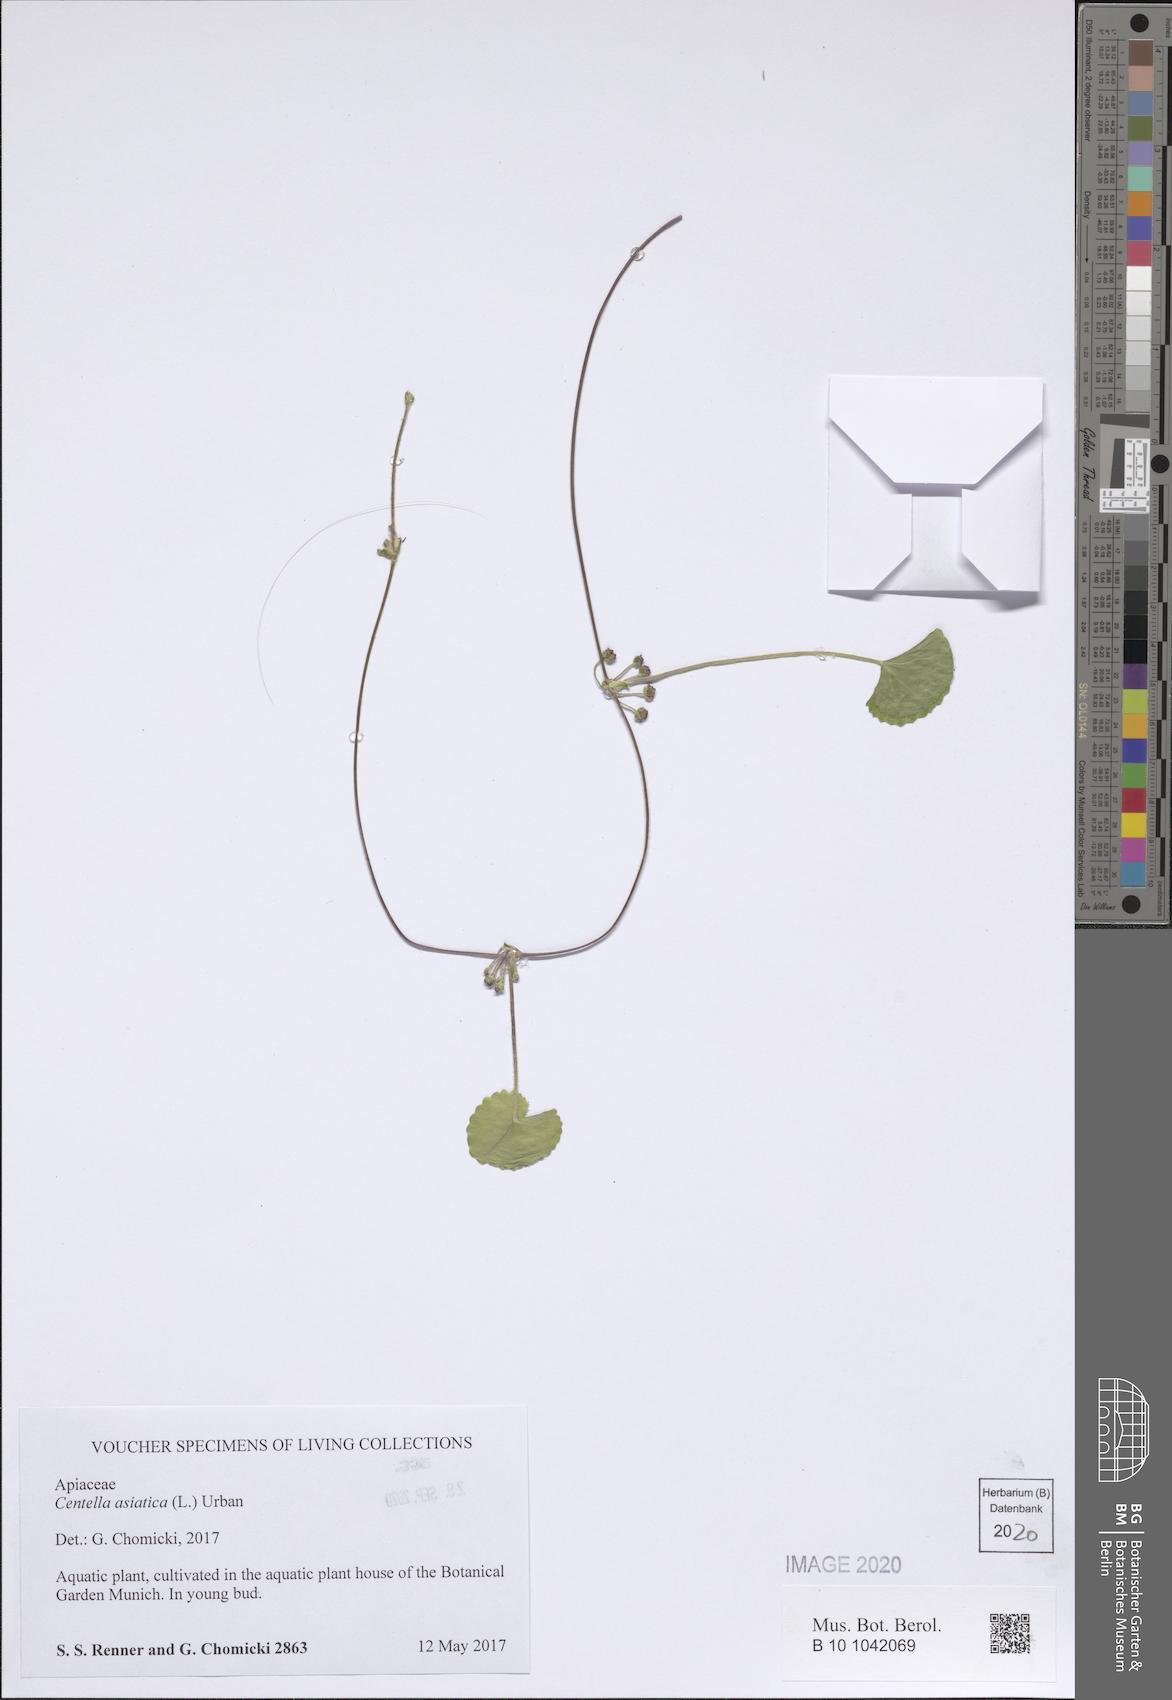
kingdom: Plantae
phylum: Tracheophyta
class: Magnoliopsida
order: Apiales
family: Apiaceae
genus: Centella
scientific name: Centella asiatica
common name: Spadeleaf
